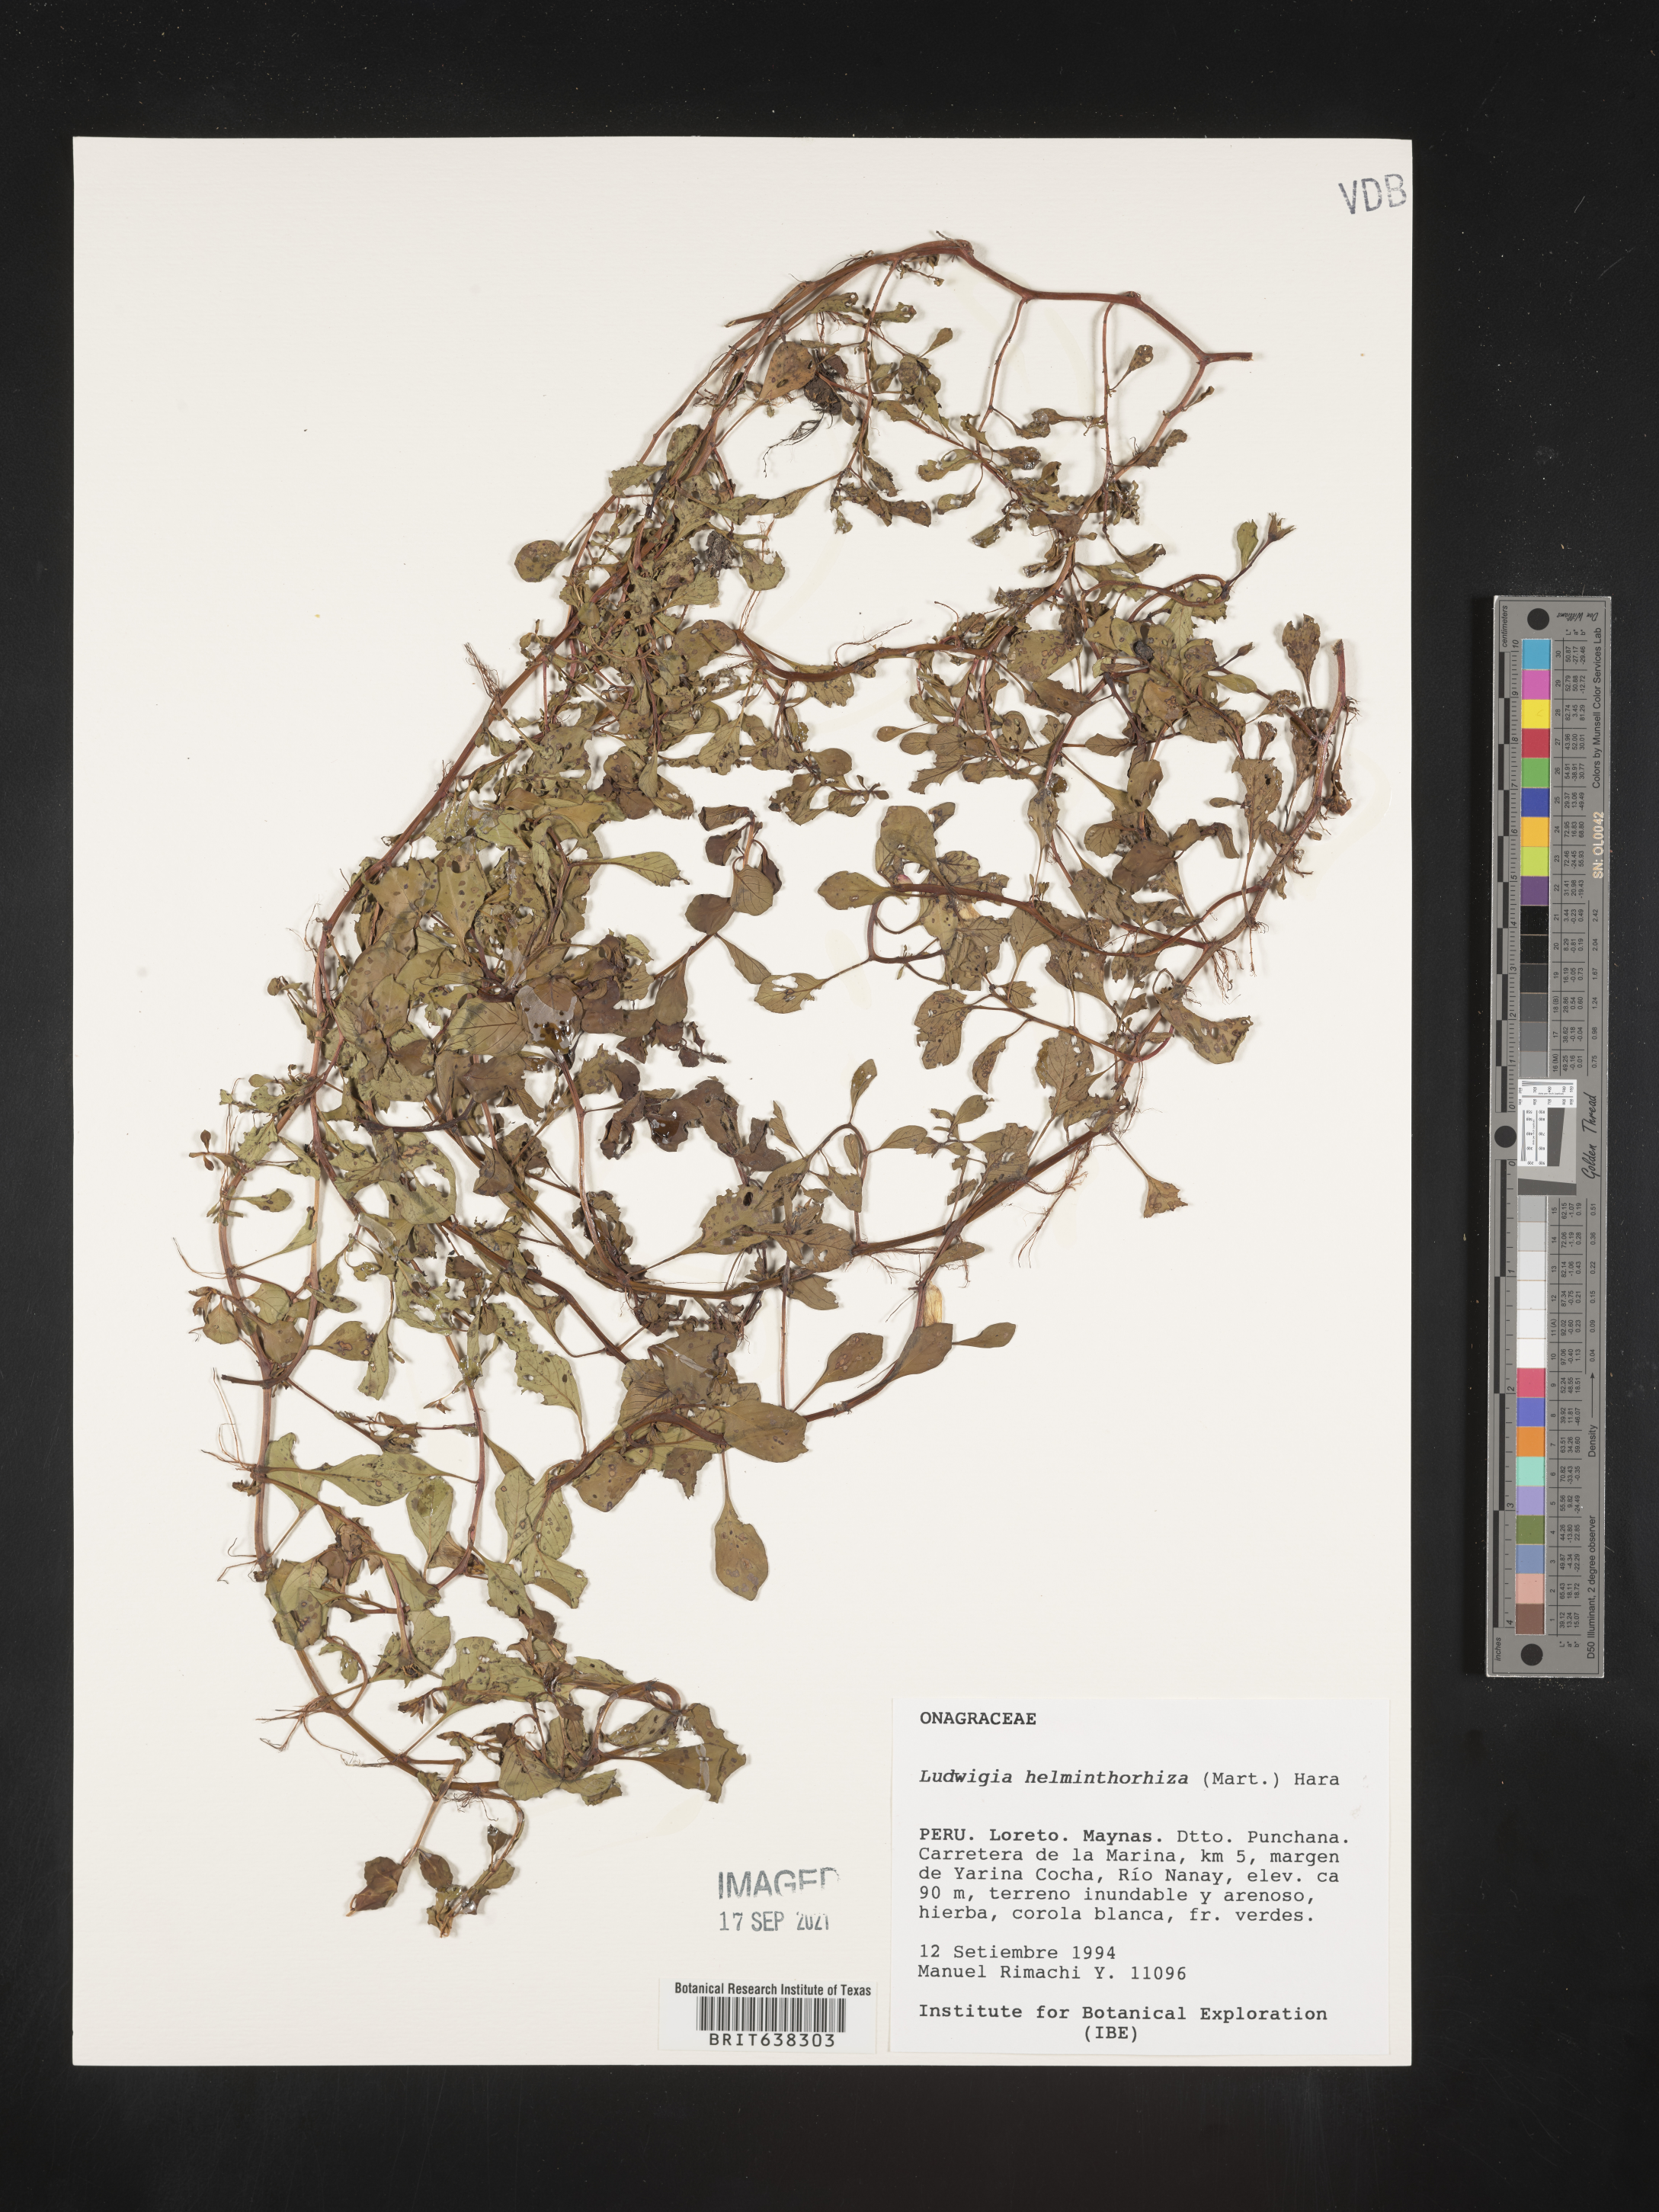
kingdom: Plantae
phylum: Tracheophyta
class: Magnoliopsida
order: Myrtales
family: Onagraceae
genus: Ludwigia
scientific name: Ludwigia
